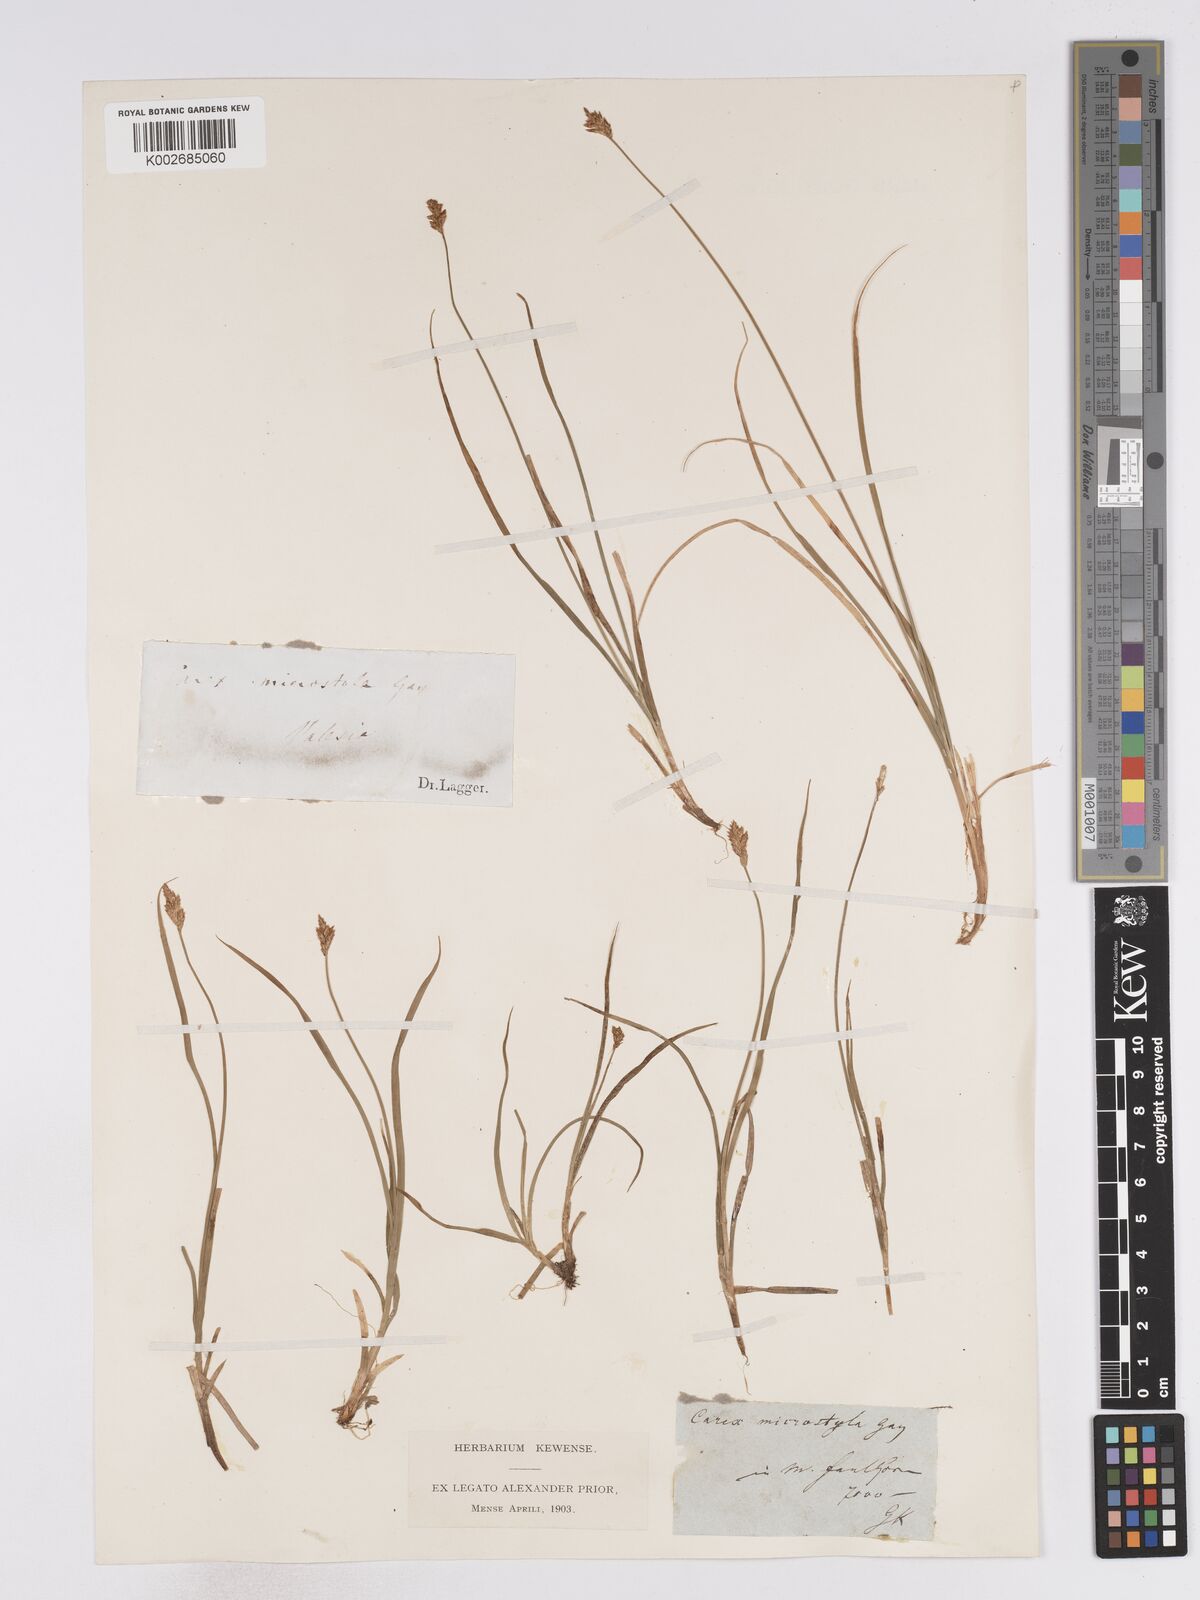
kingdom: Plantae
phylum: Tracheophyta
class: Liliopsida
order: Poales
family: Cyperaceae
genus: Carex
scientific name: Carex microstyla
